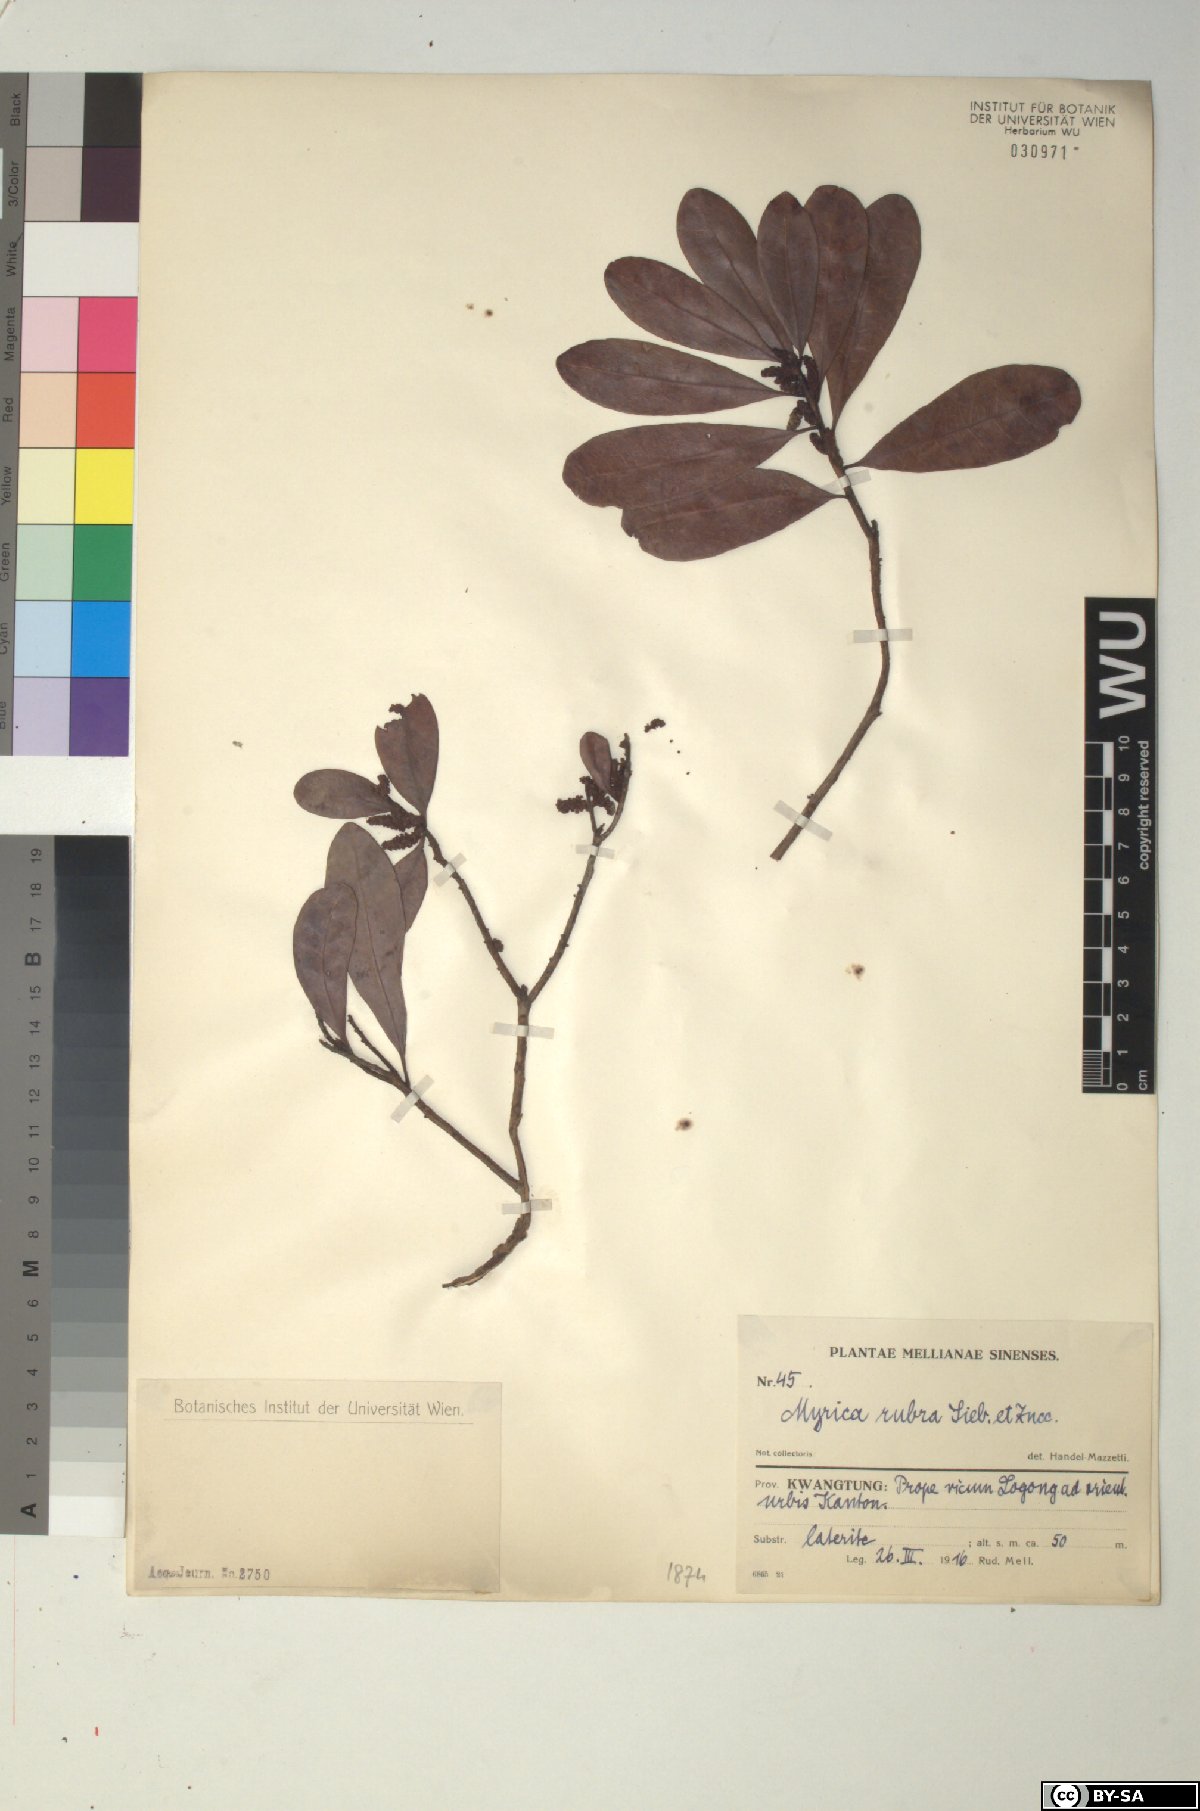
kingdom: Plantae
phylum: Tracheophyta
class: Magnoliopsida
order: Fagales
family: Myricaceae
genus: Morella
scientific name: Morella rubra
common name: Red bayberry
